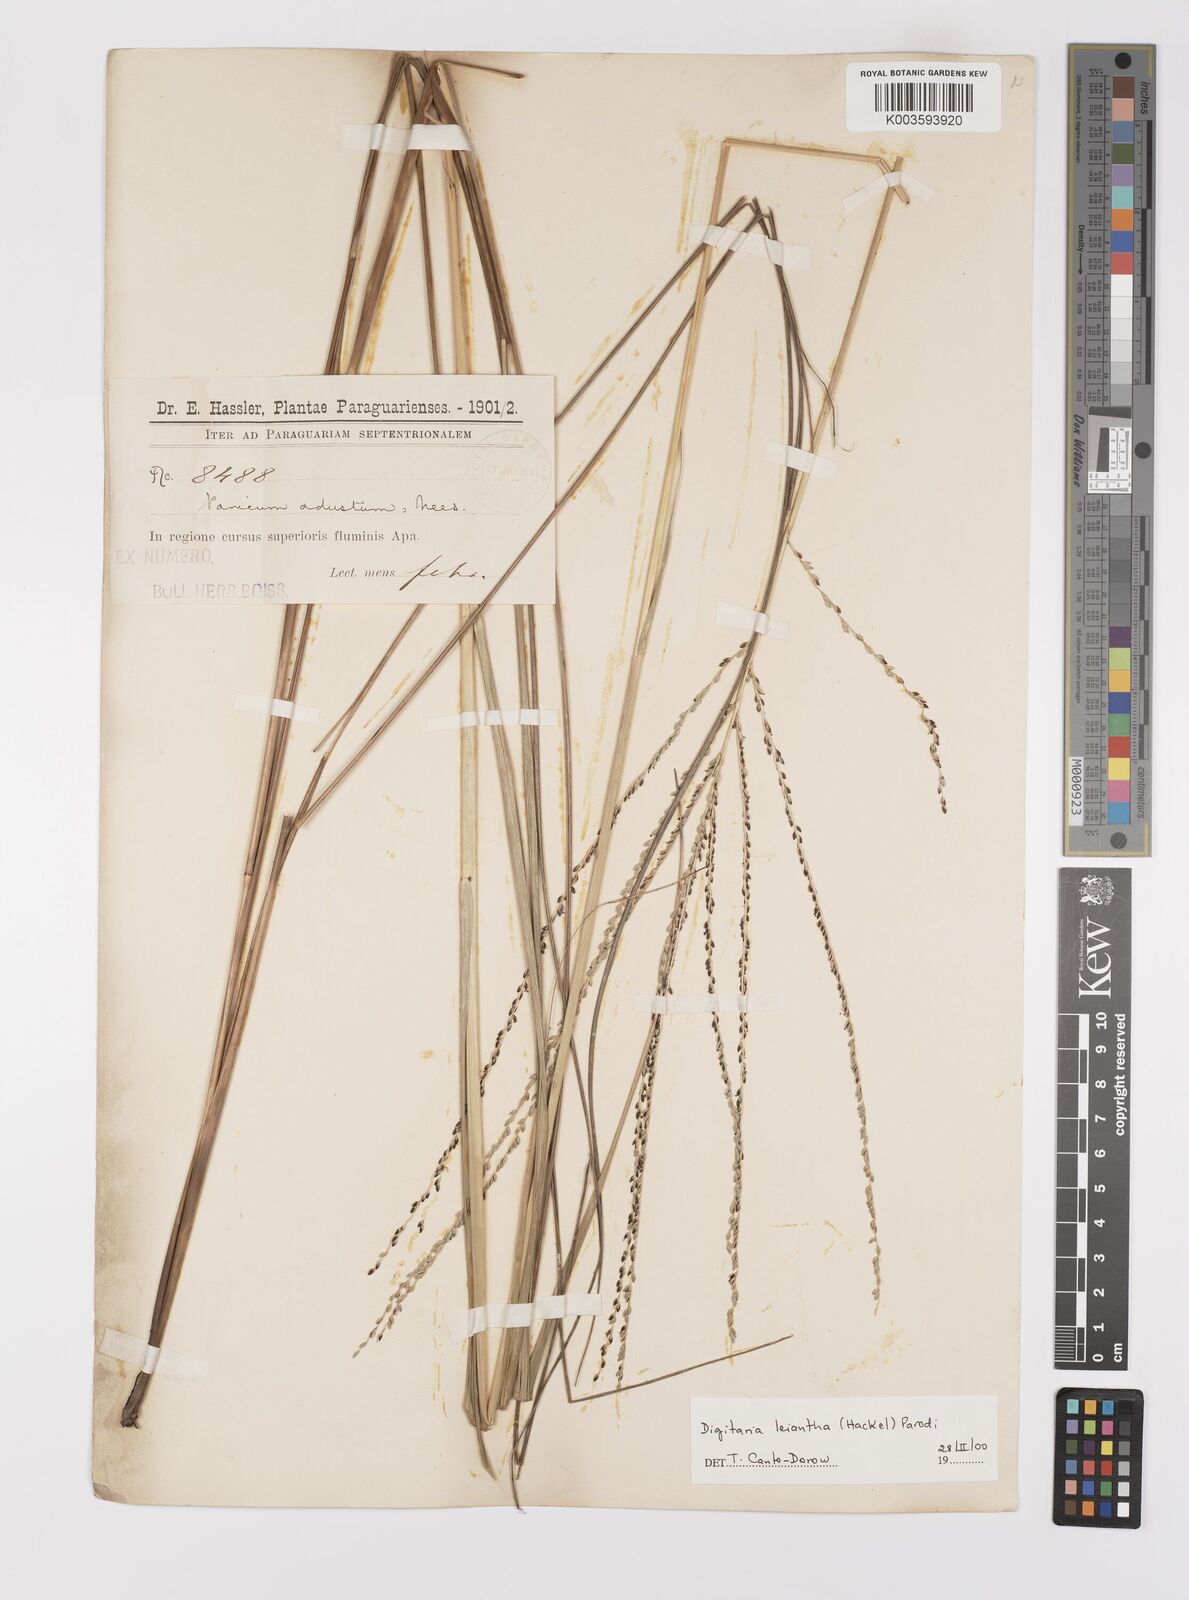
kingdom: Plantae
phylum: Tracheophyta
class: Liliopsida
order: Poales
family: Poaceae
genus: Digitaria
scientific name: Digitaria leiantha
